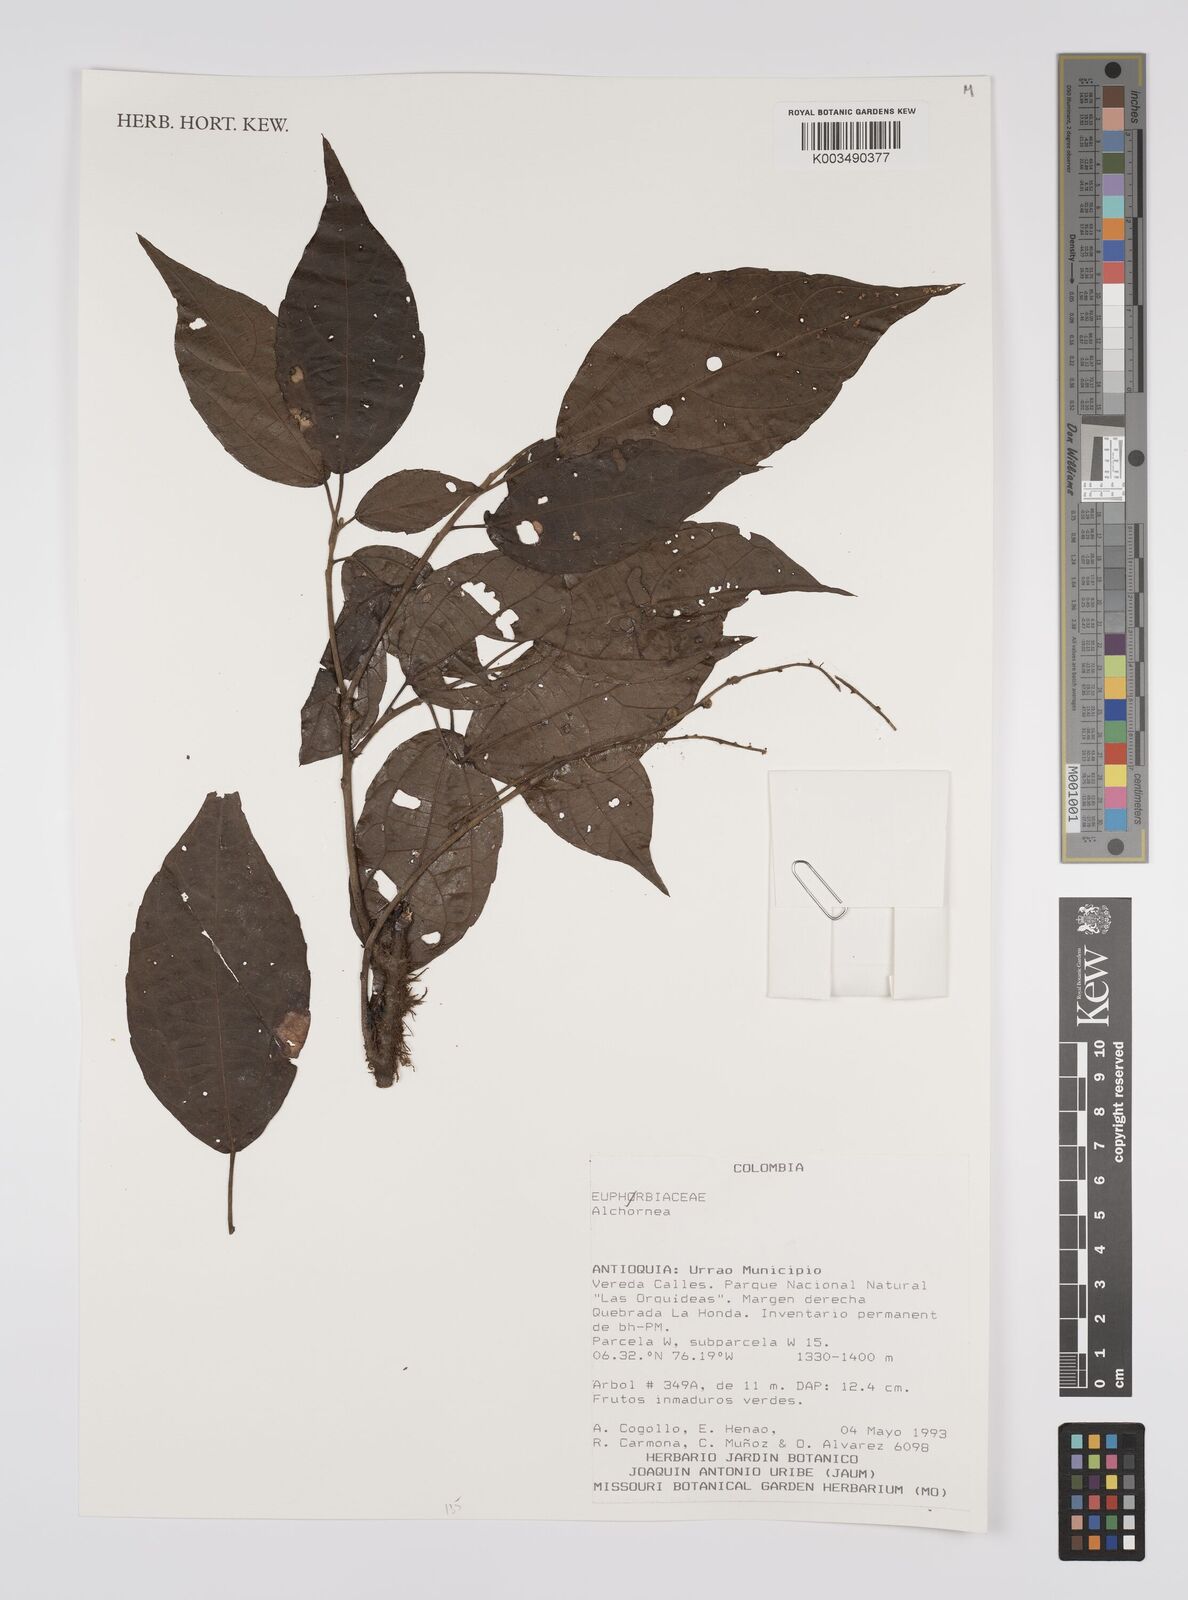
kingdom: Plantae
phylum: Tracheophyta
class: Magnoliopsida
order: Malpighiales
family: Euphorbiaceae
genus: Alchornea
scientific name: Alchornea
